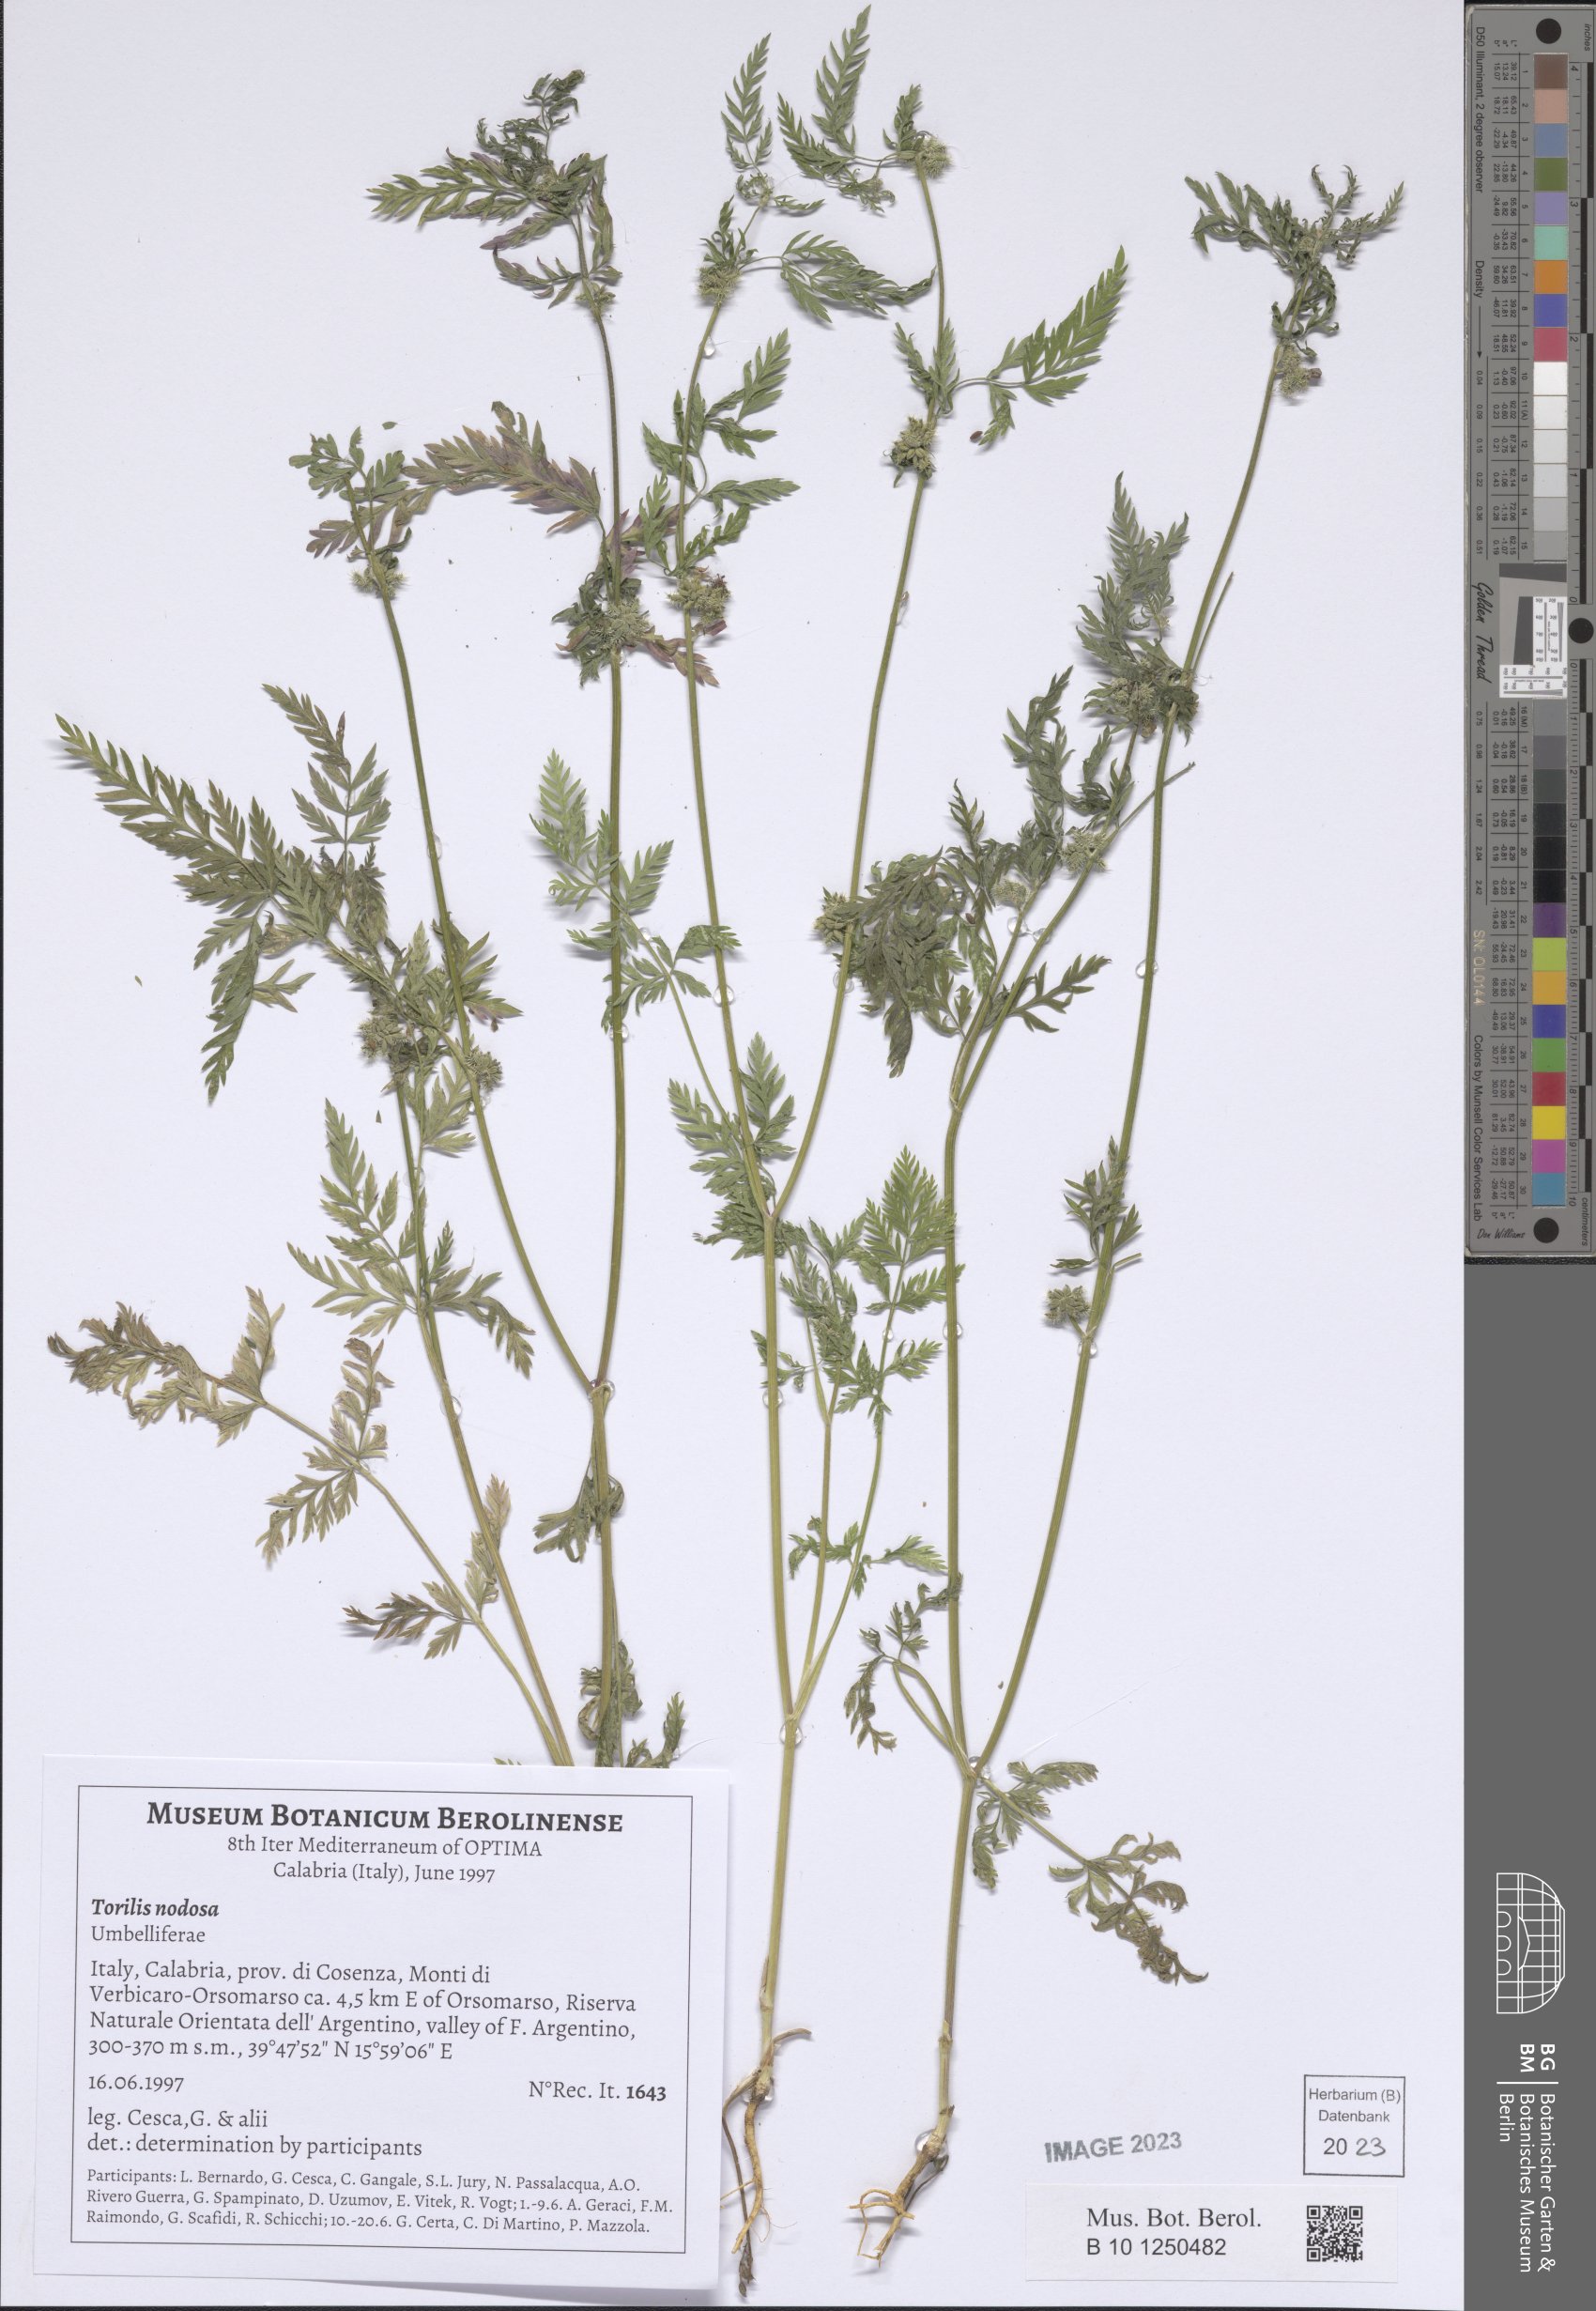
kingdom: Plantae
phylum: Tracheophyta
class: Magnoliopsida
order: Apiales
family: Apiaceae
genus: Torilis
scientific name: Torilis nodosa
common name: Knotted hedge-parsley
